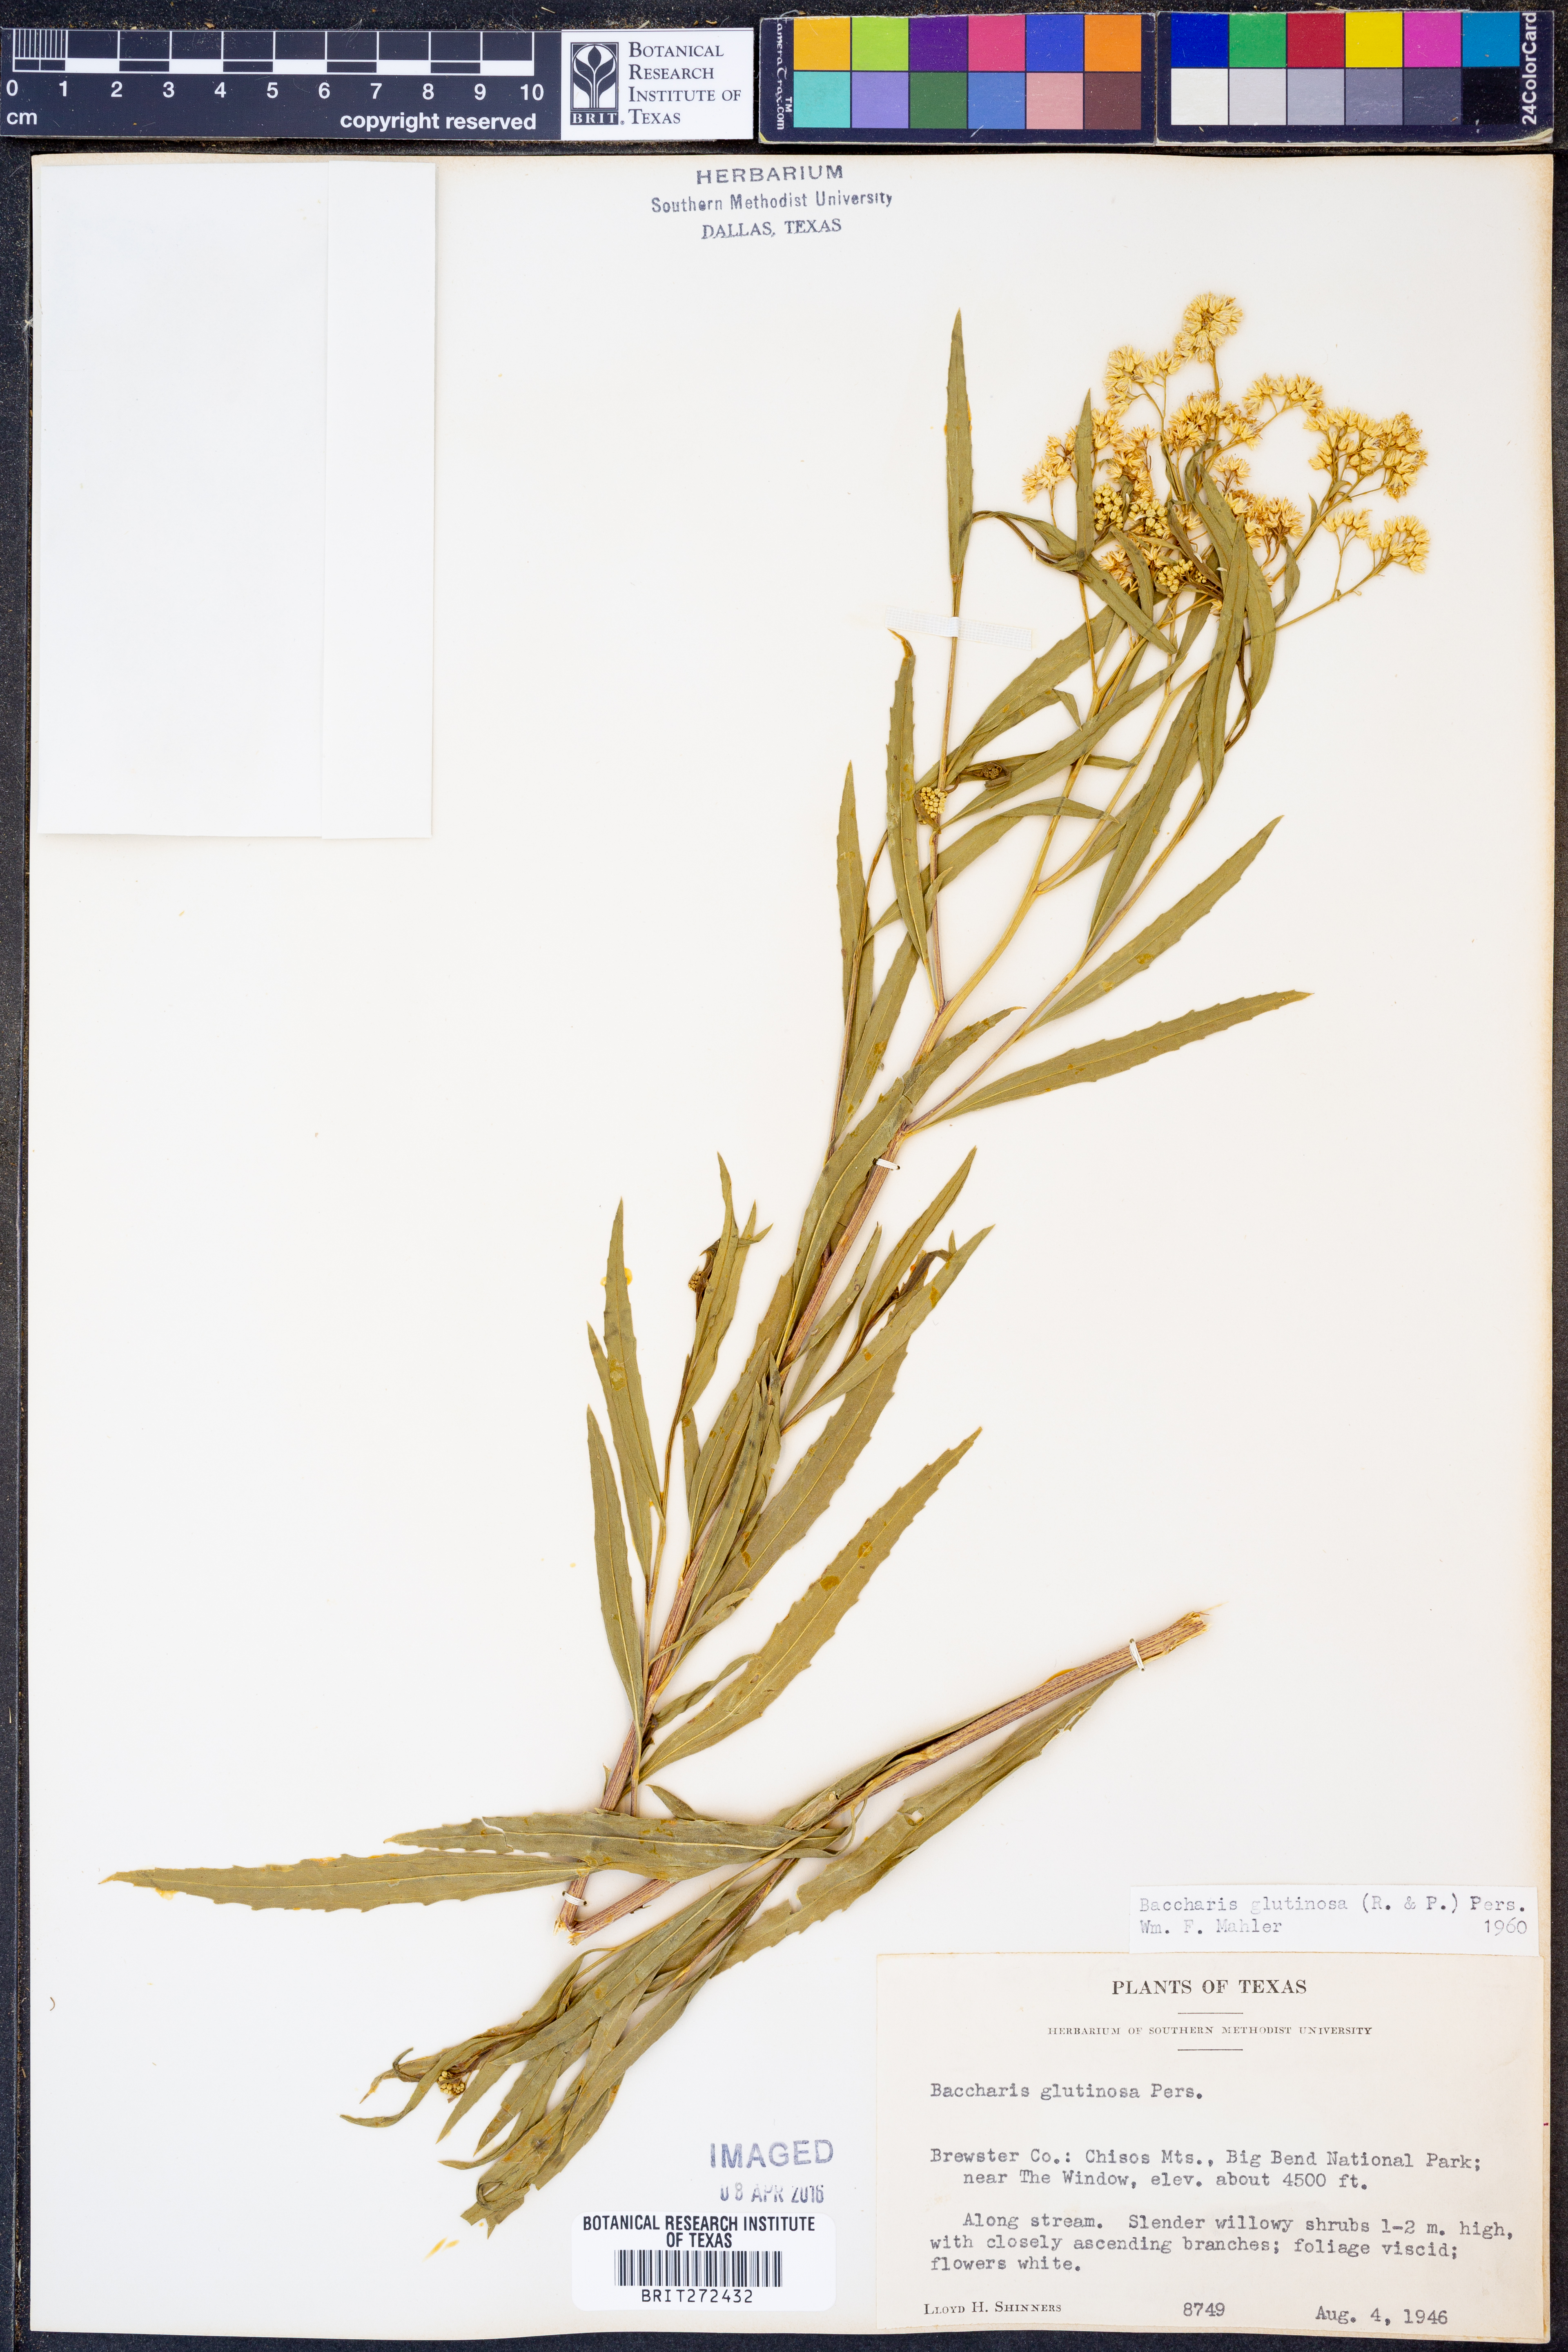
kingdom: Plantae
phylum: Tracheophyta
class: Magnoliopsida
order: Asterales
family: Asteraceae
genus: Baccharis
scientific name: Baccharis glutinosa
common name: Saltmarsh baccharis
